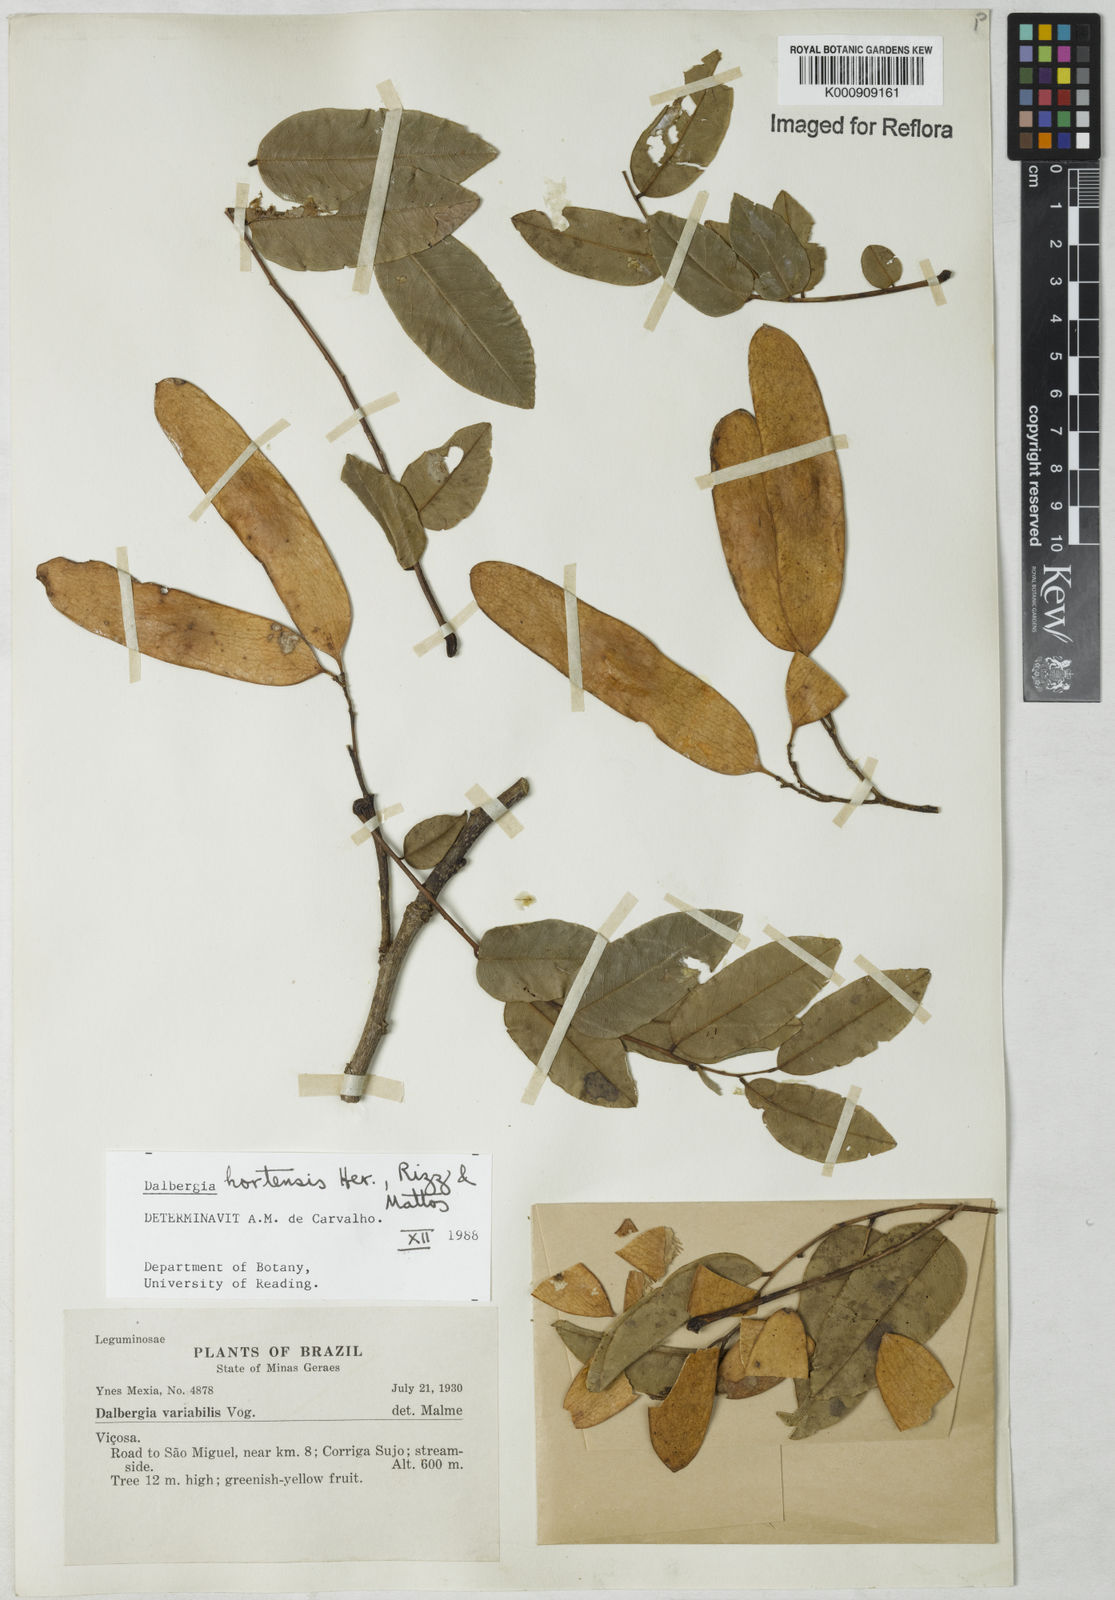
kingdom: Plantae
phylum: Tracheophyta
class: Magnoliopsida
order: Fabales
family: Fabaceae
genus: Dalbergia
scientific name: Dalbergia hortensis
